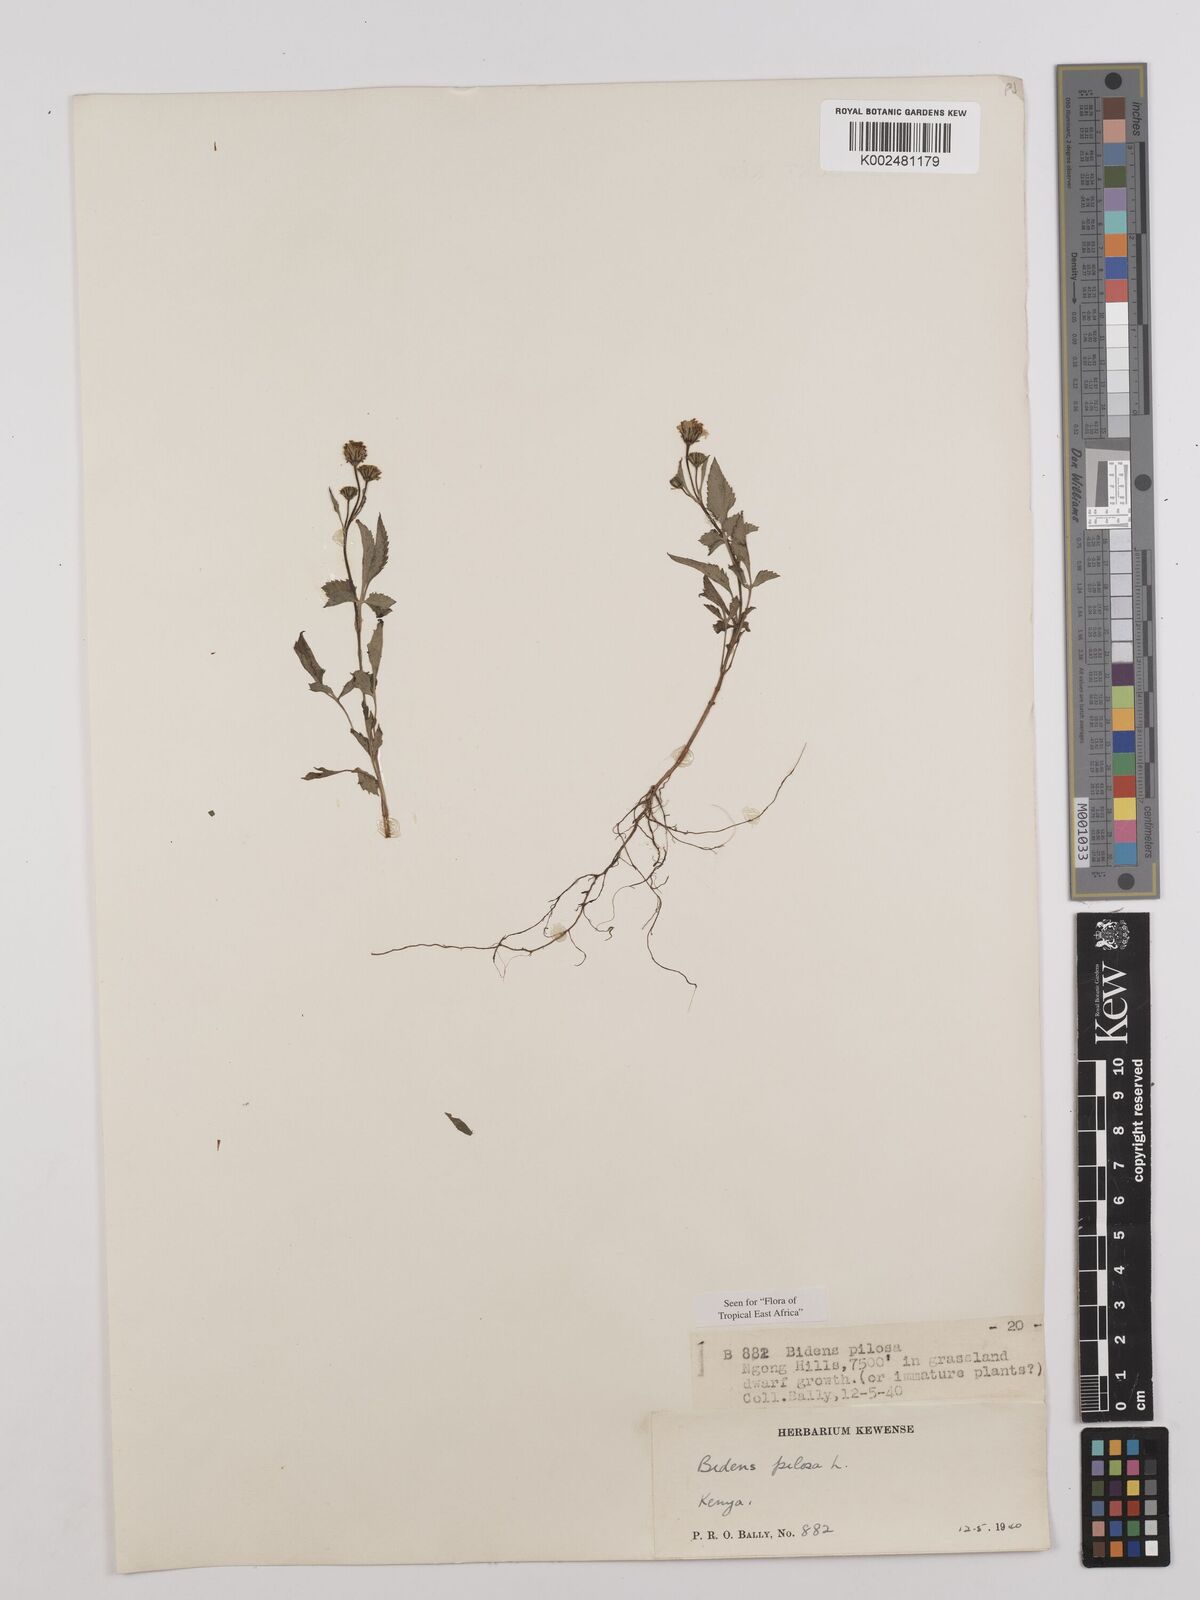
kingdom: Plantae
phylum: Tracheophyta
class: Magnoliopsida
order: Asterales
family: Asteraceae
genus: Bidens
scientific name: Bidens pilosa
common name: Black-jack
